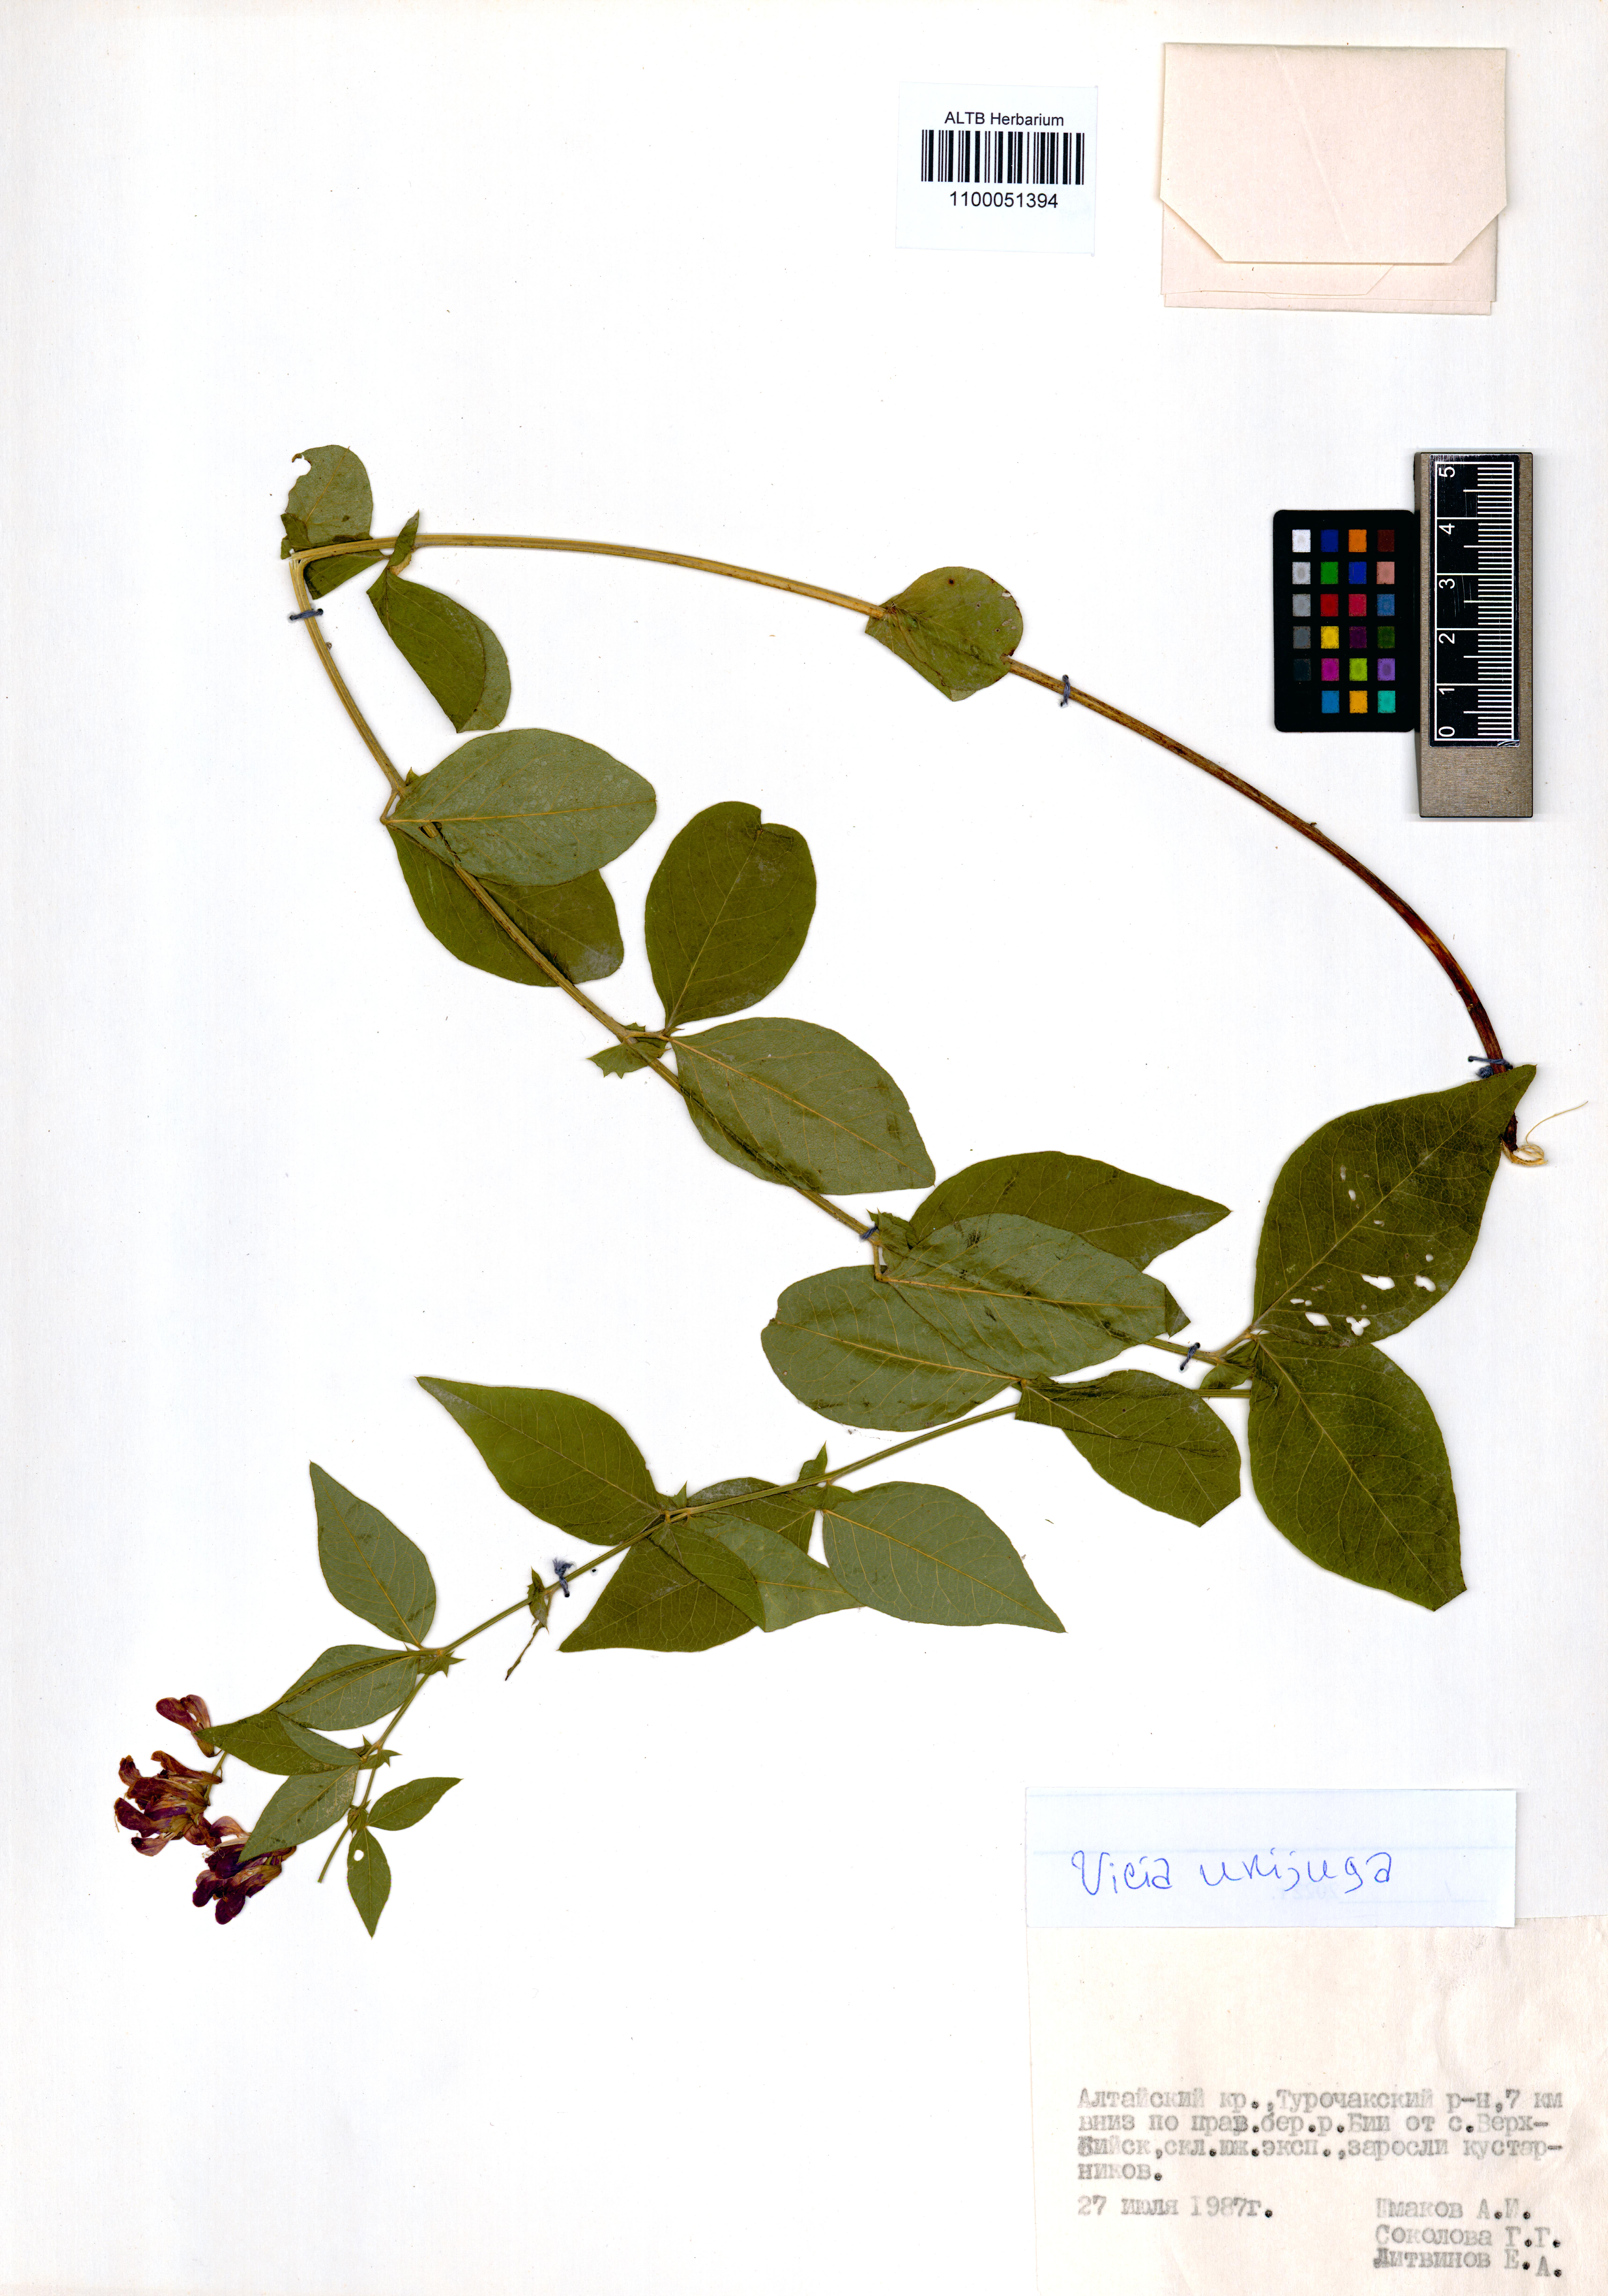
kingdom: Plantae
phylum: Tracheophyta
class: Magnoliopsida
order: Fabales
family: Fabaceae
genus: Vicia
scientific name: Vicia unijuga
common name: Two-leaf vetch
